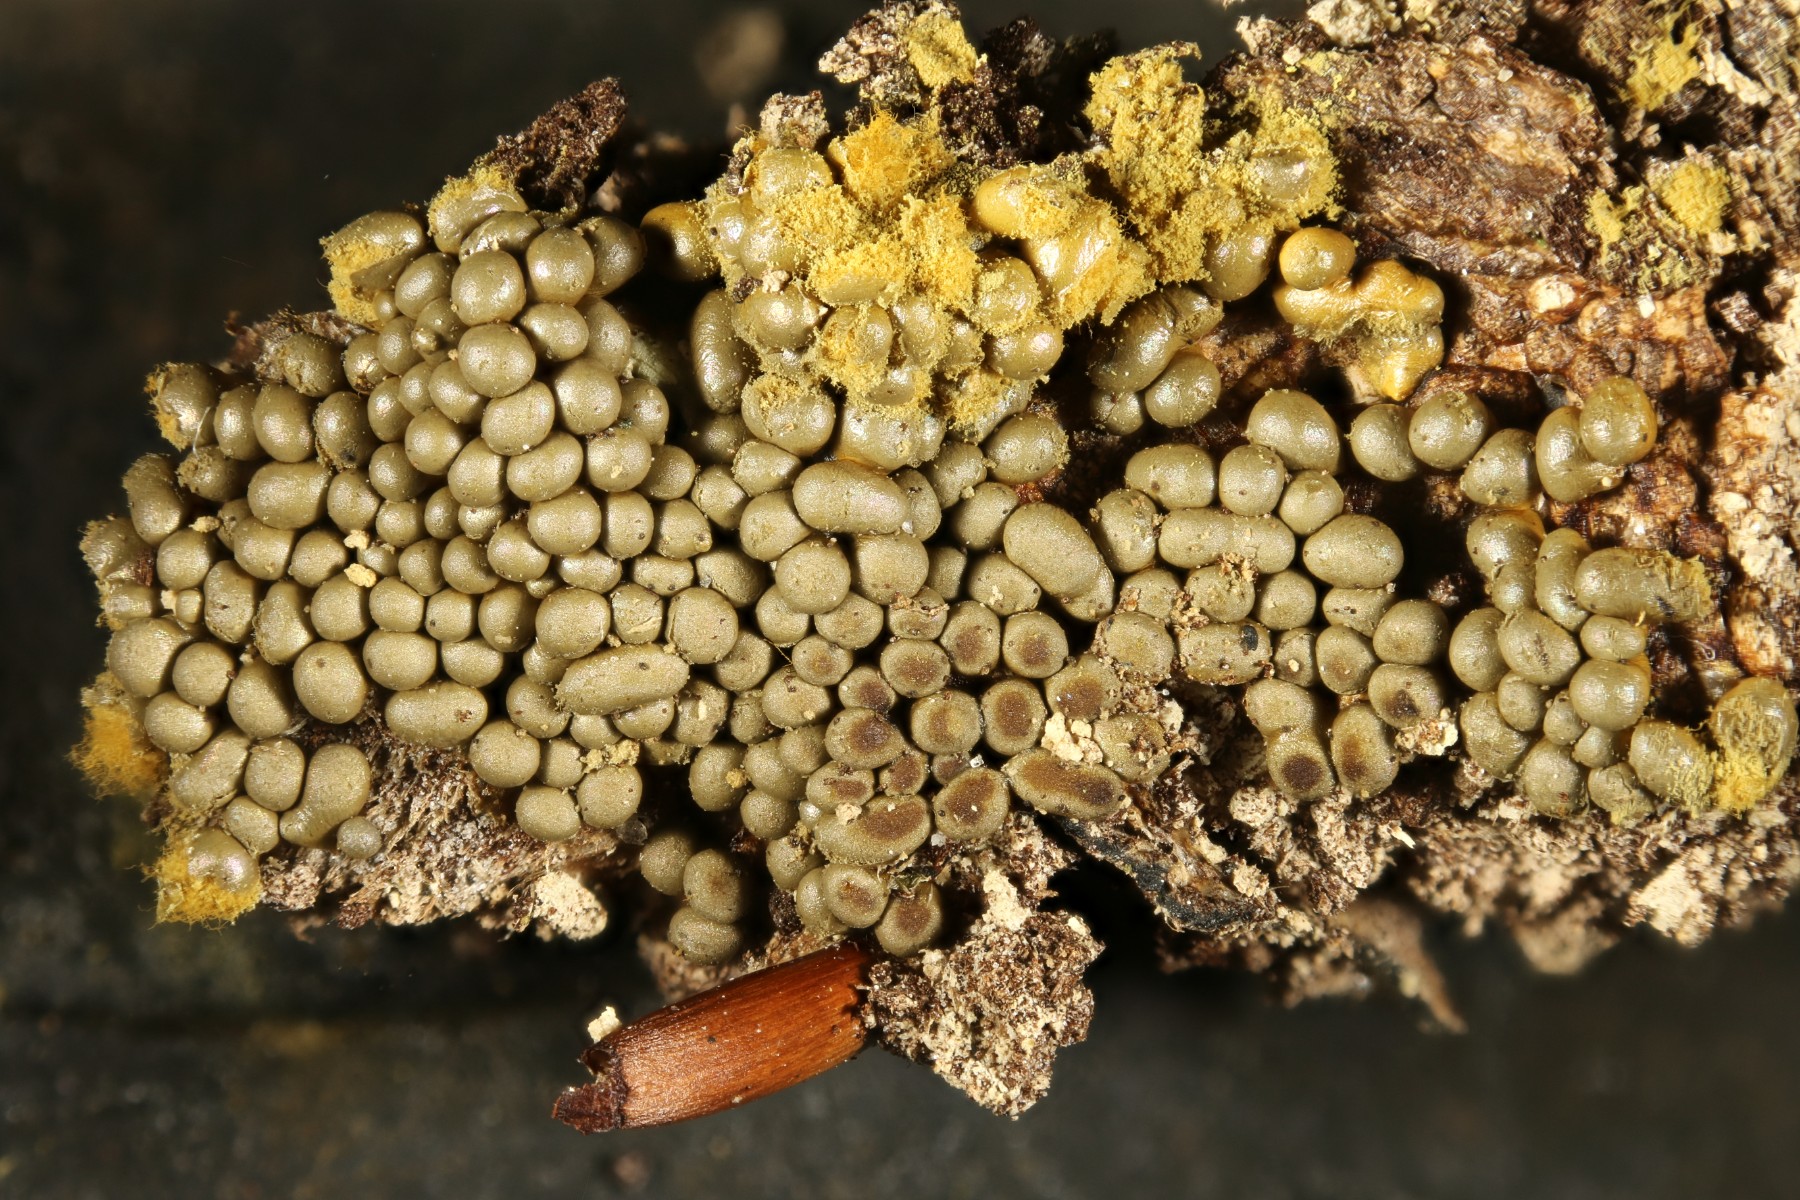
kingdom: Protozoa
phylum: Mycetozoa
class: Myxomycetes
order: Trichiales
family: Trichiaceae
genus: Trichia
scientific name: Trichia varia
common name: foranderlig hårbold
